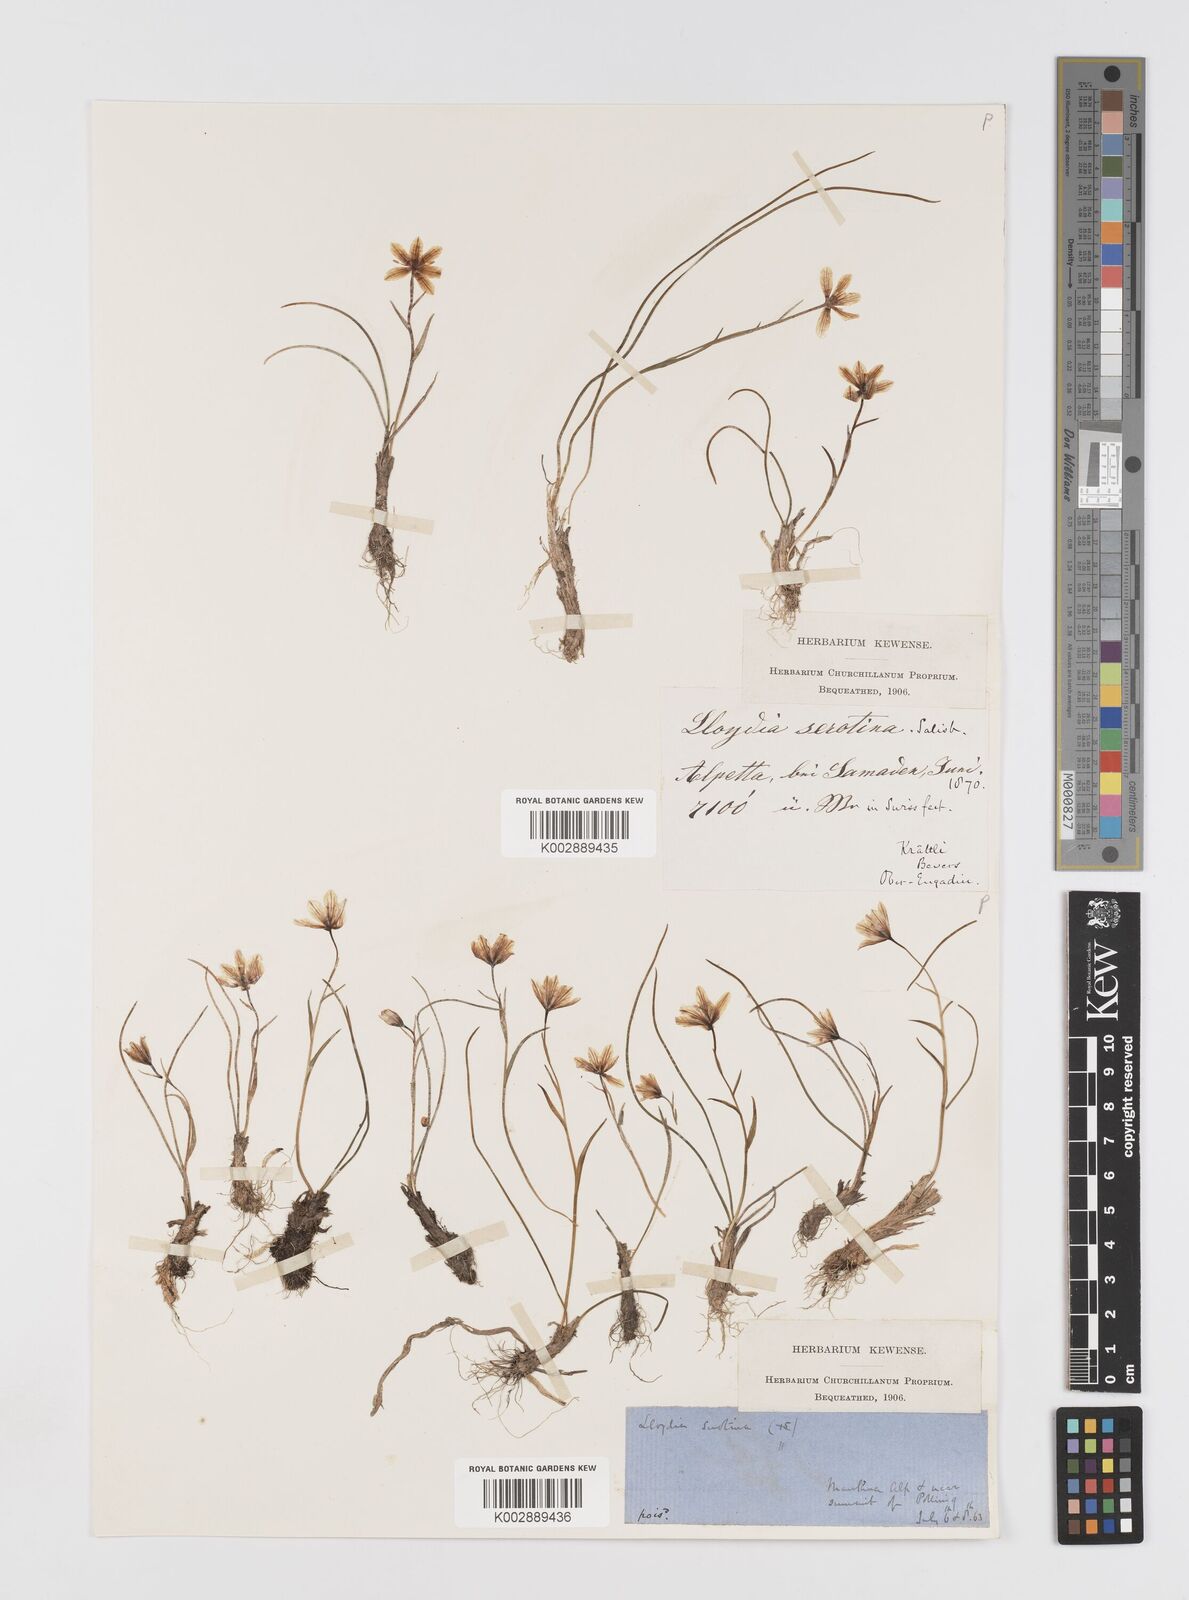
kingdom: Plantae
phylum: Tracheophyta
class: Liliopsida
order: Liliales
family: Liliaceae
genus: Gagea
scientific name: Gagea
